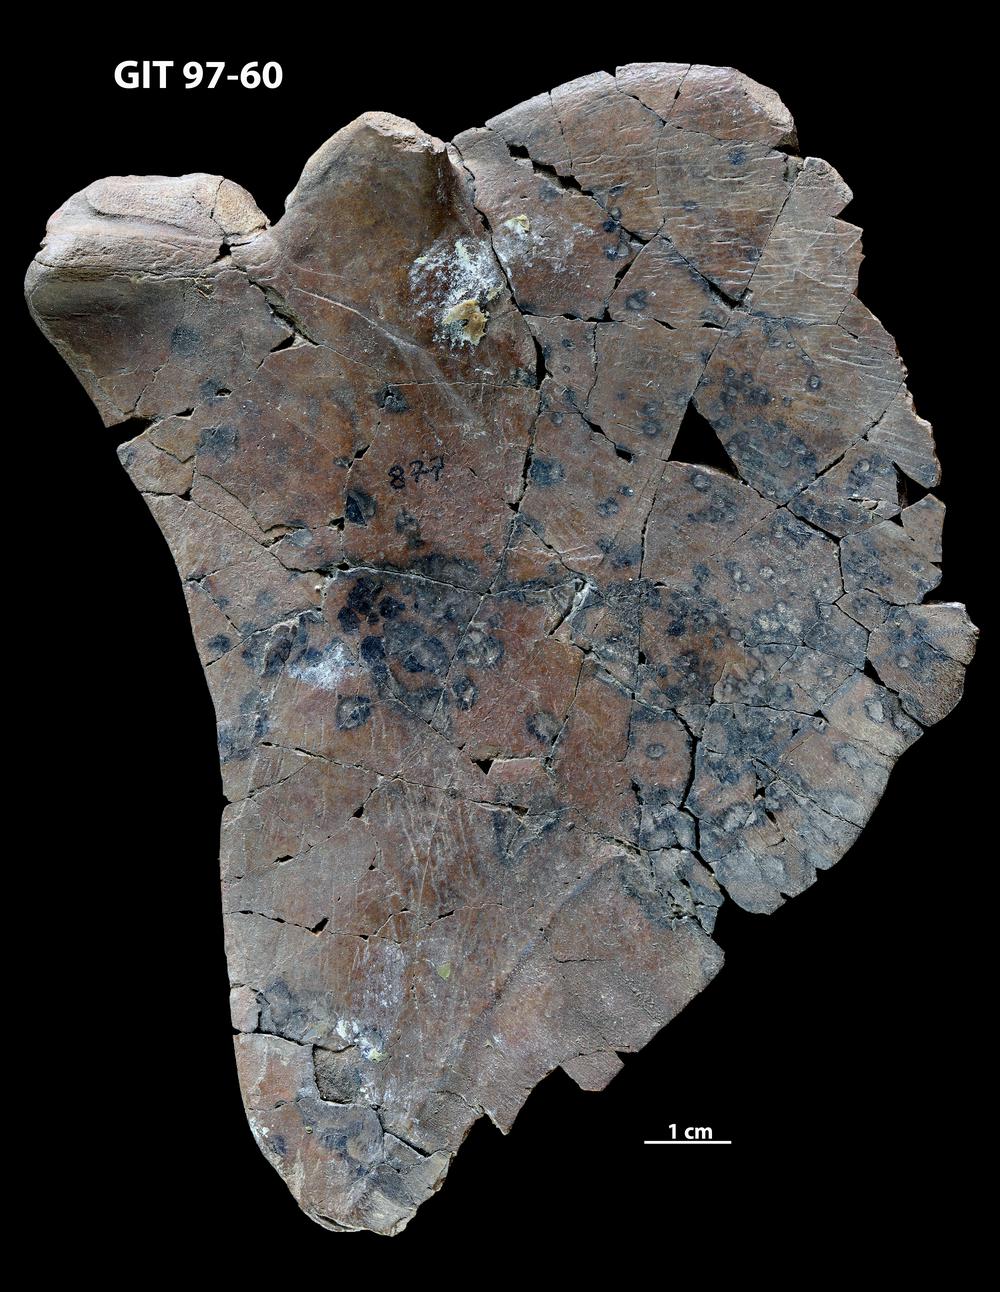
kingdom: Animalia
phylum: Chordata
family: Holonematidae
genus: Holonema
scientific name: Holonema
